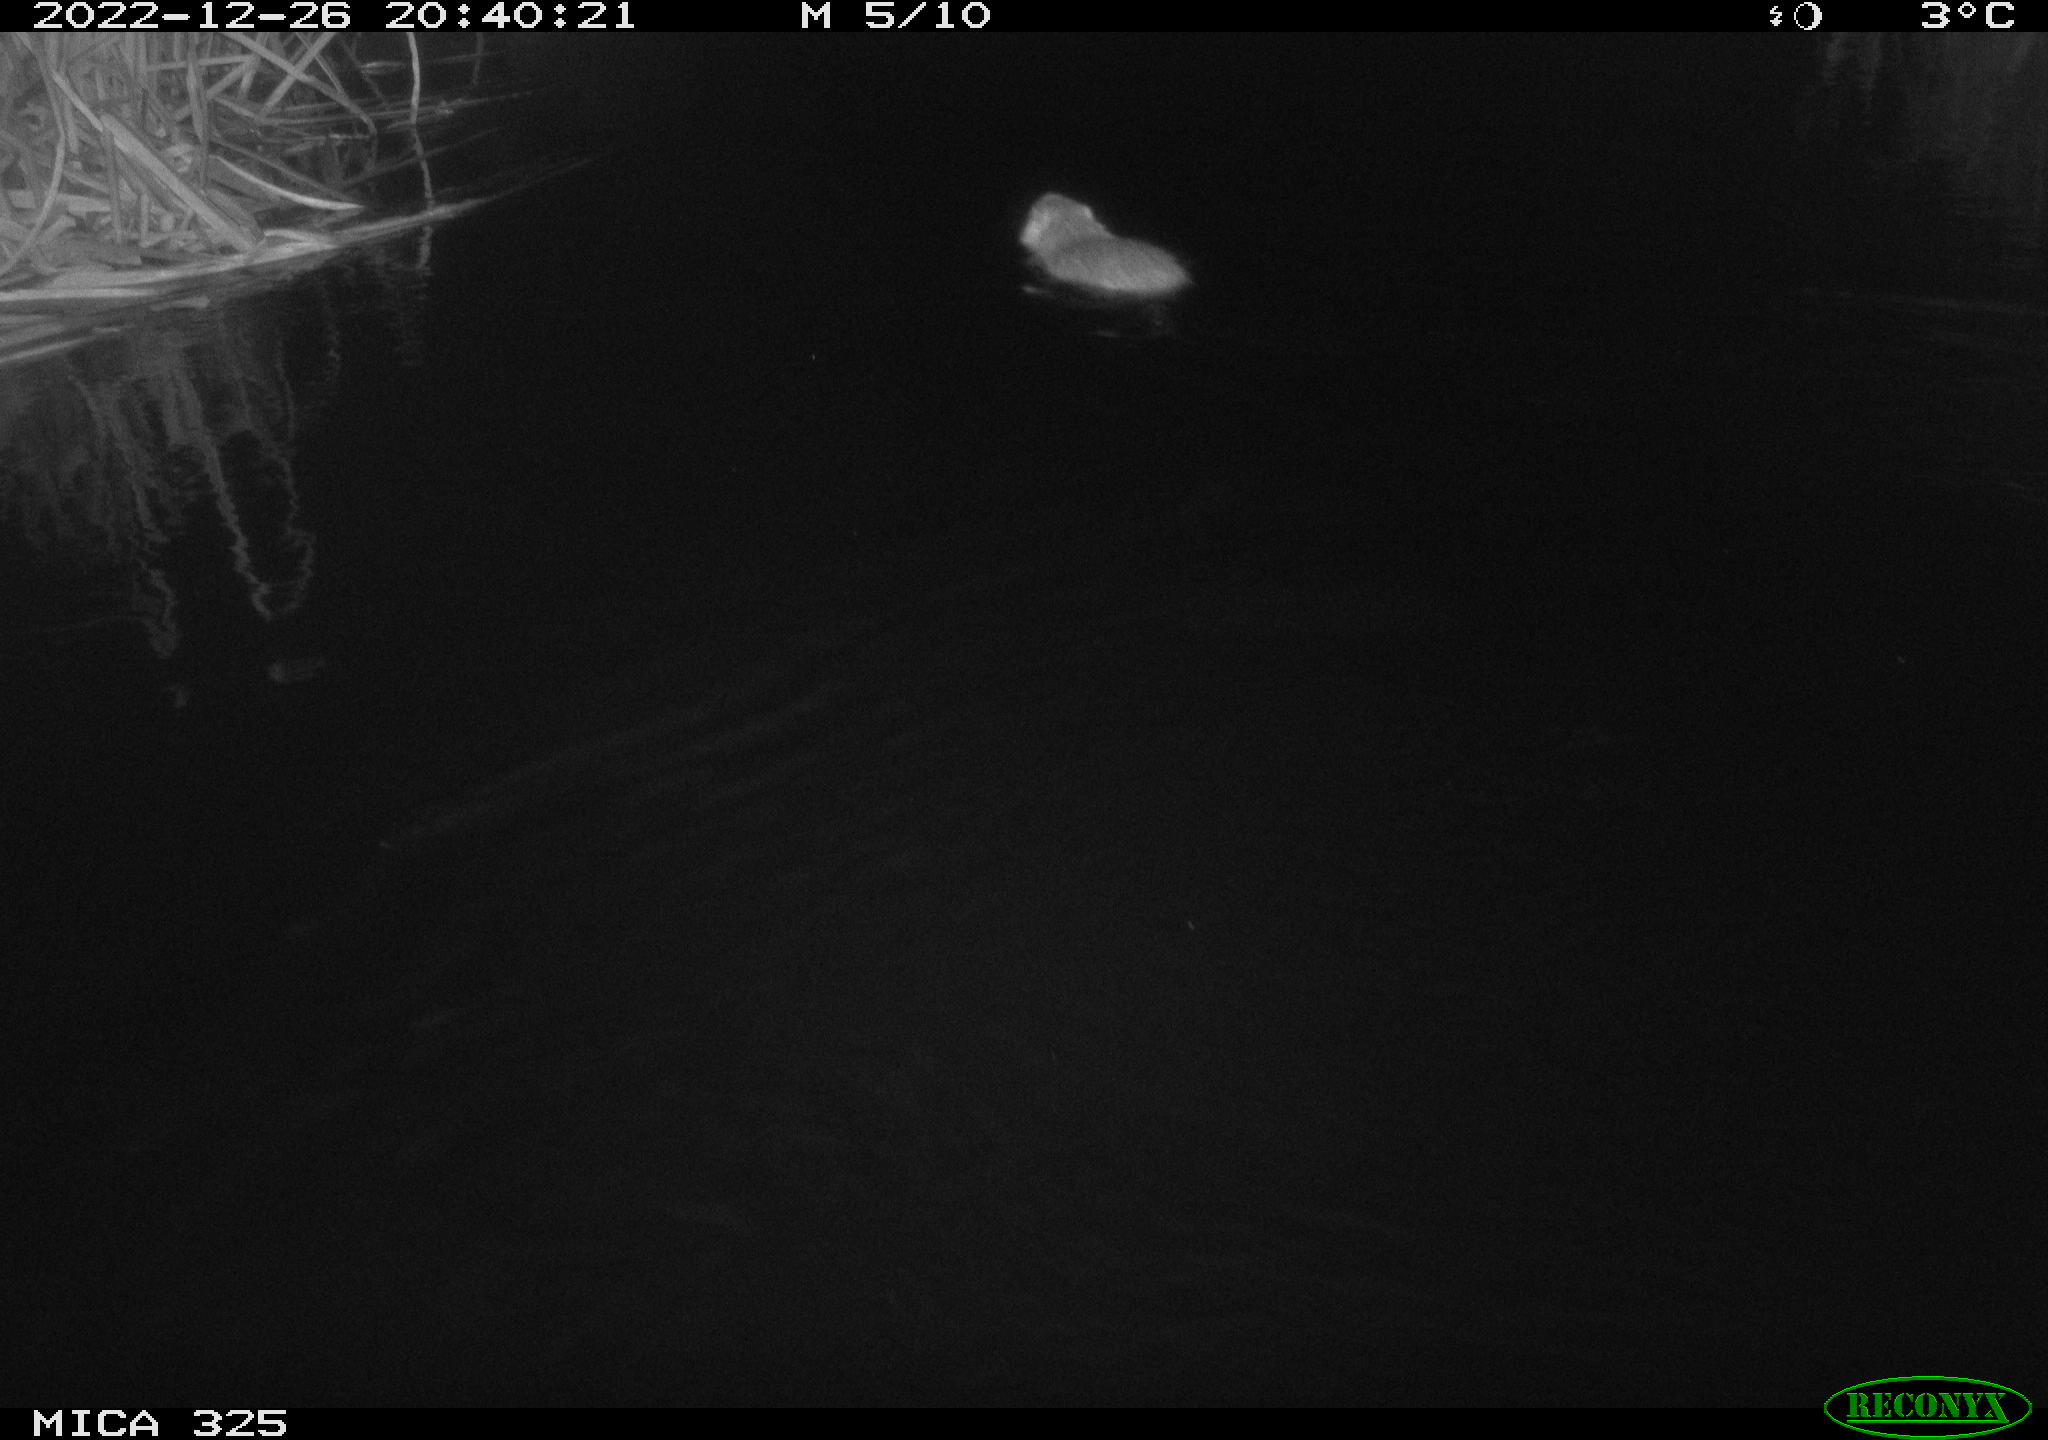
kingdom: Animalia
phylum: Chordata
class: Mammalia
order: Rodentia
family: Myocastoridae
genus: Myocastor
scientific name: Myocastor coypus
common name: Coypu
